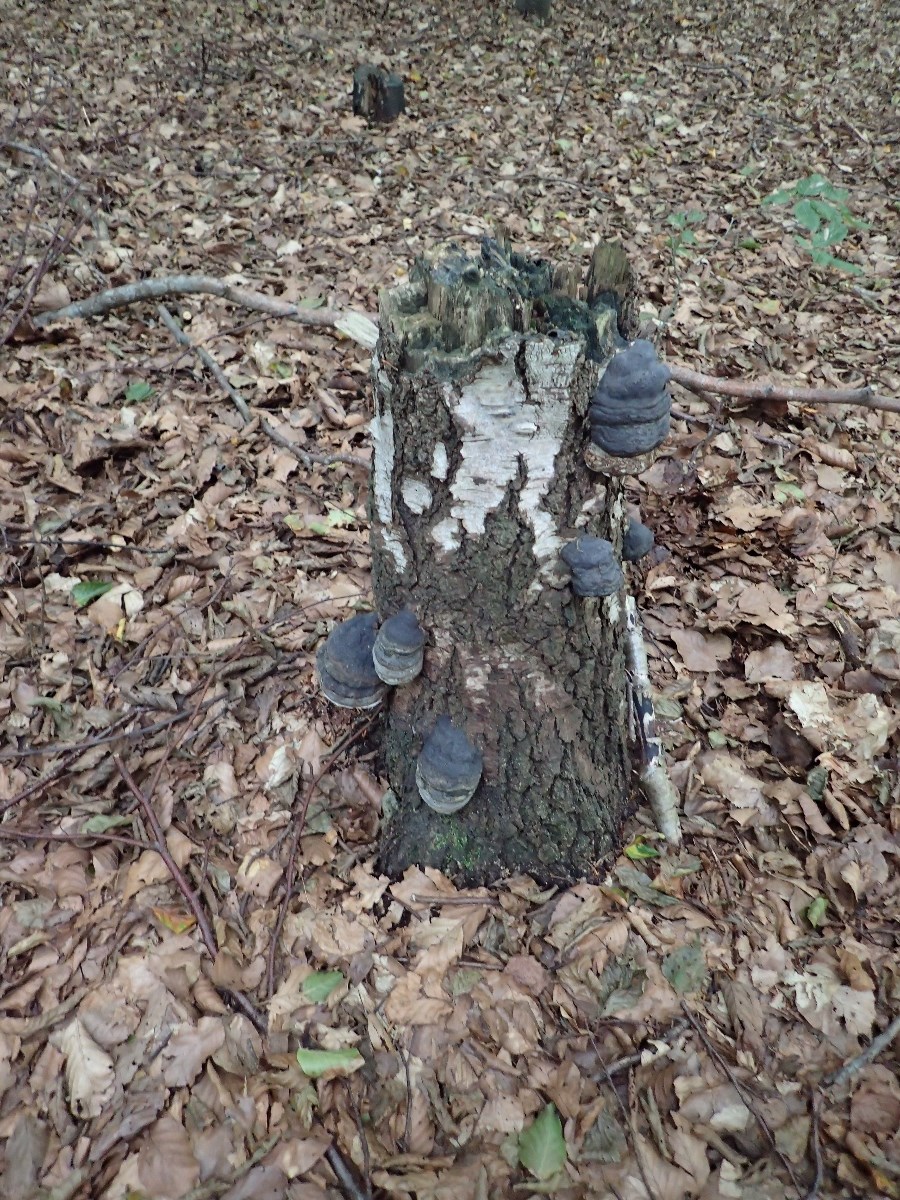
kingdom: Fungi
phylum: Basidiomycota
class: Agaricomycetes
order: Polyporales
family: Polyporaceae
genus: Fomes
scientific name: Fomes fomentarius
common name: tøndersvamp
